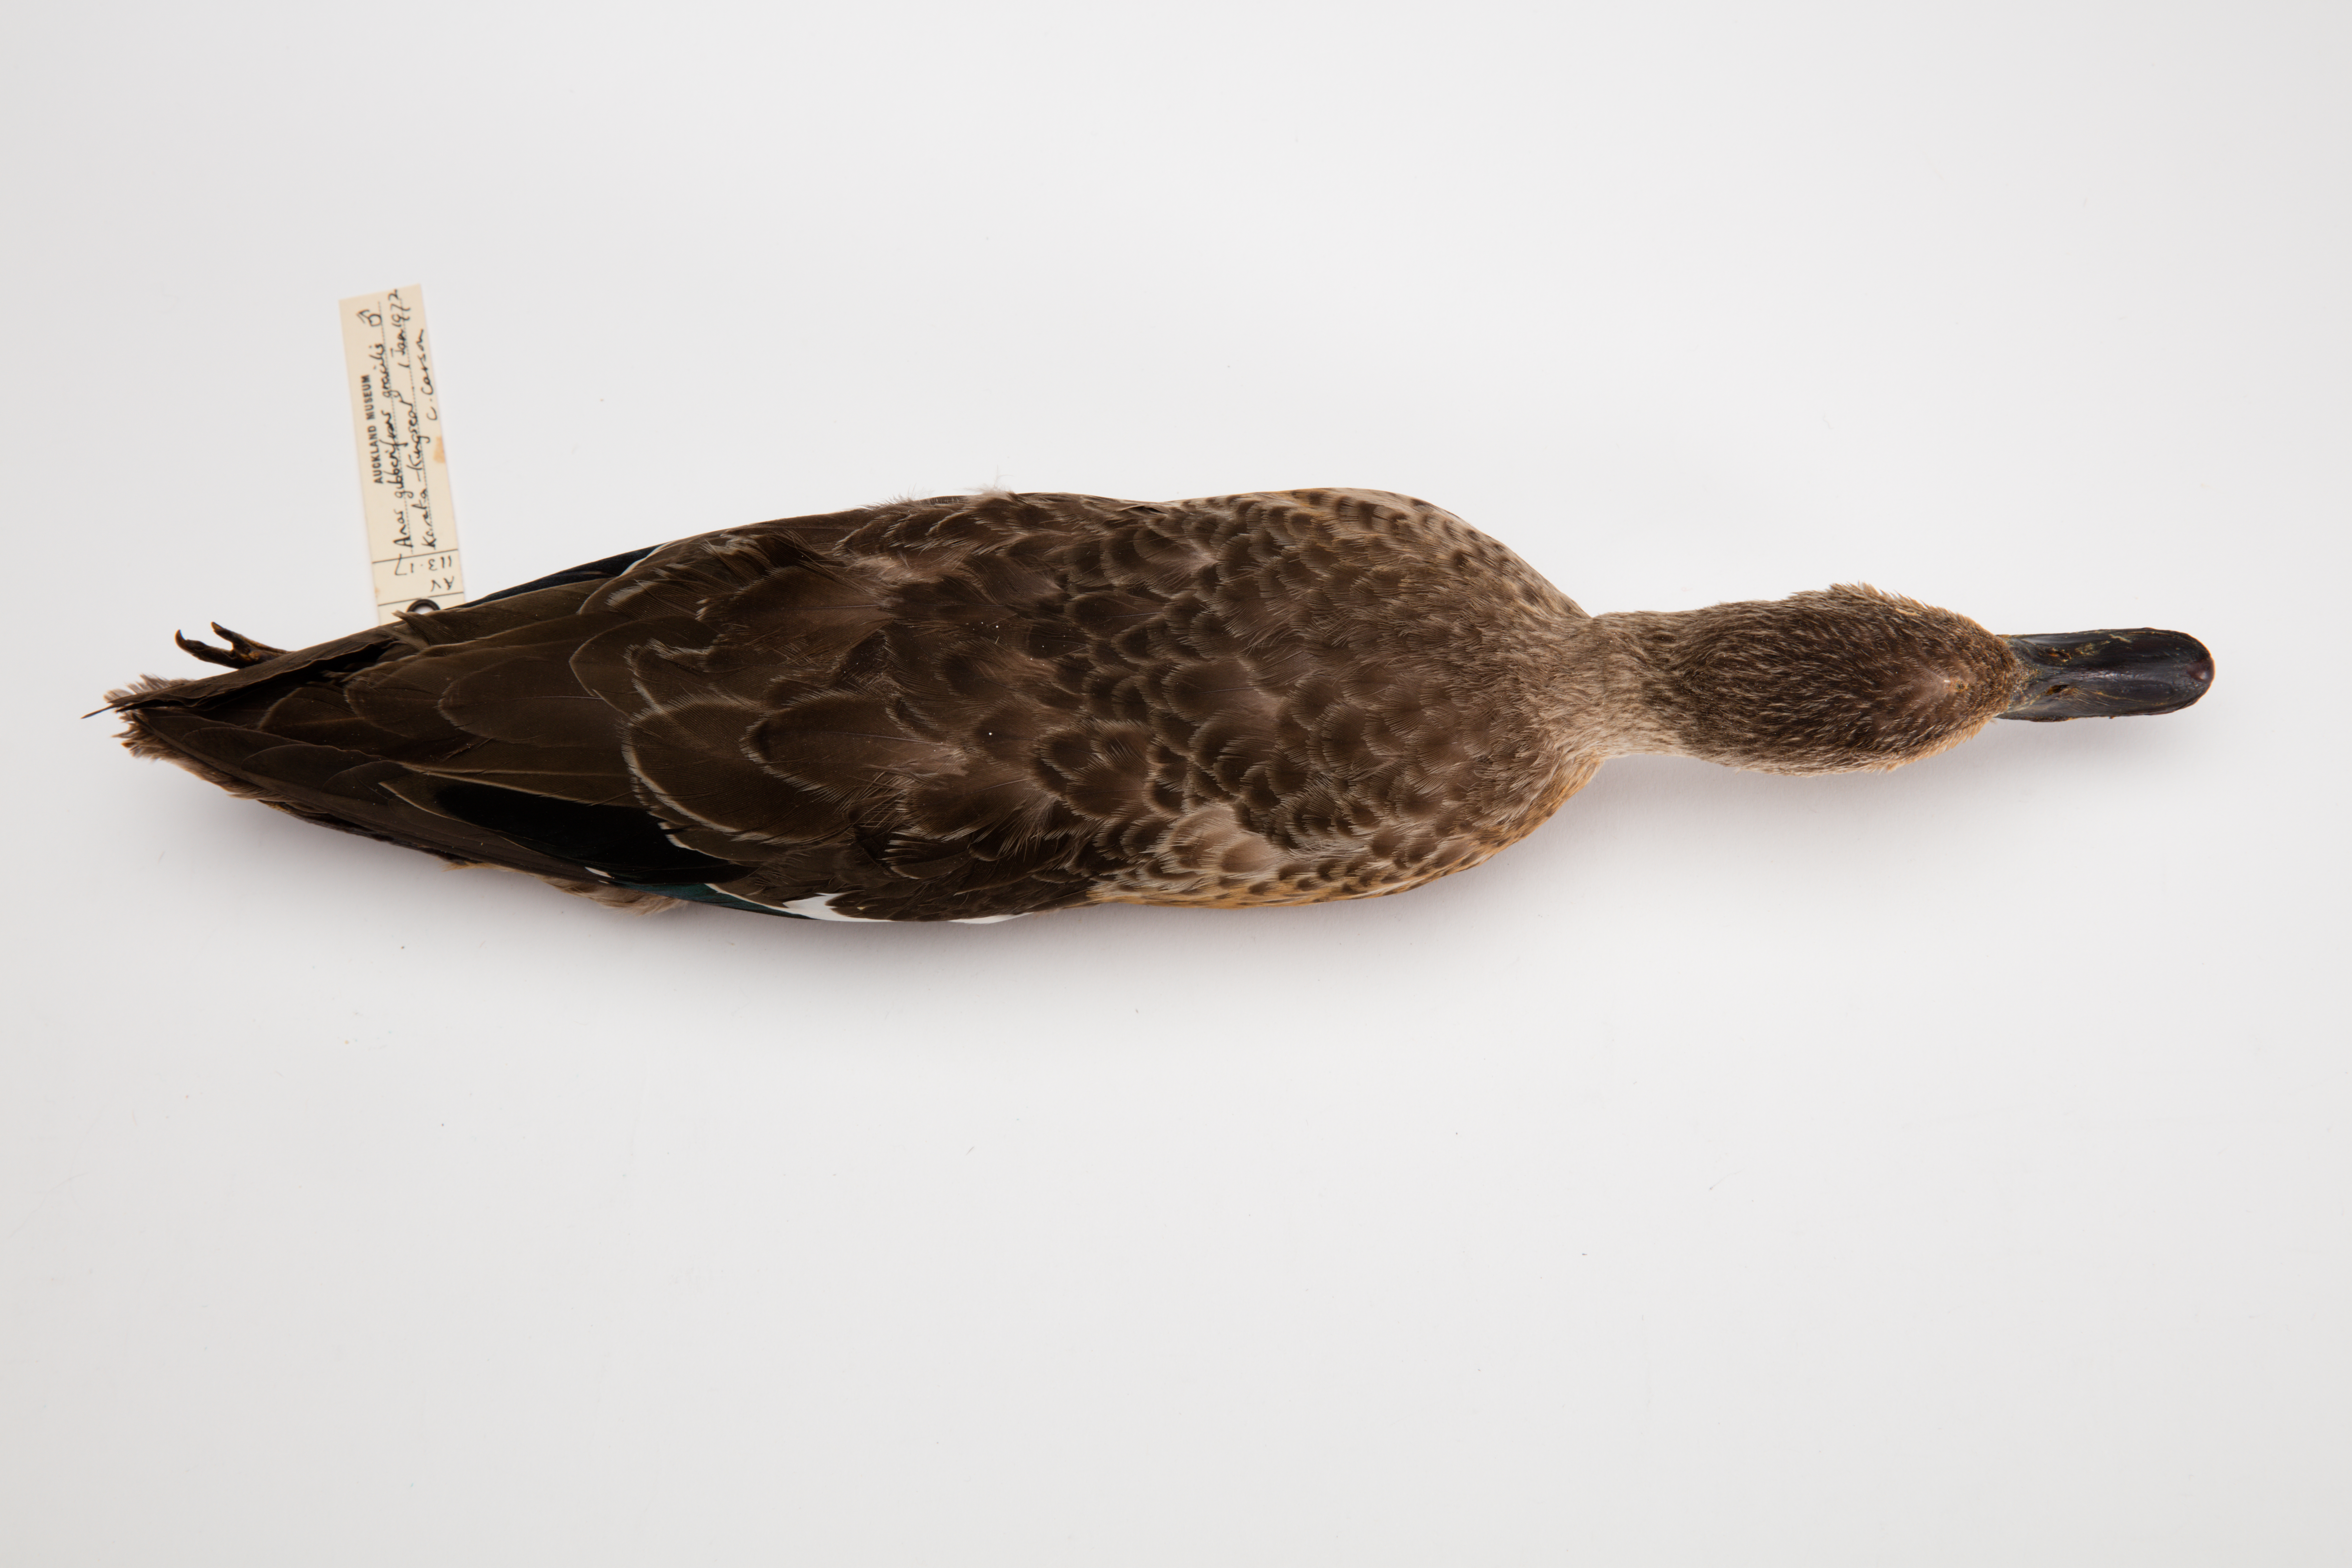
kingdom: Animalia
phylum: Chordata
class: Aves
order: Anseriformes
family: Anatidae
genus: Anas
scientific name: Anas gracilis
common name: Grey teal
